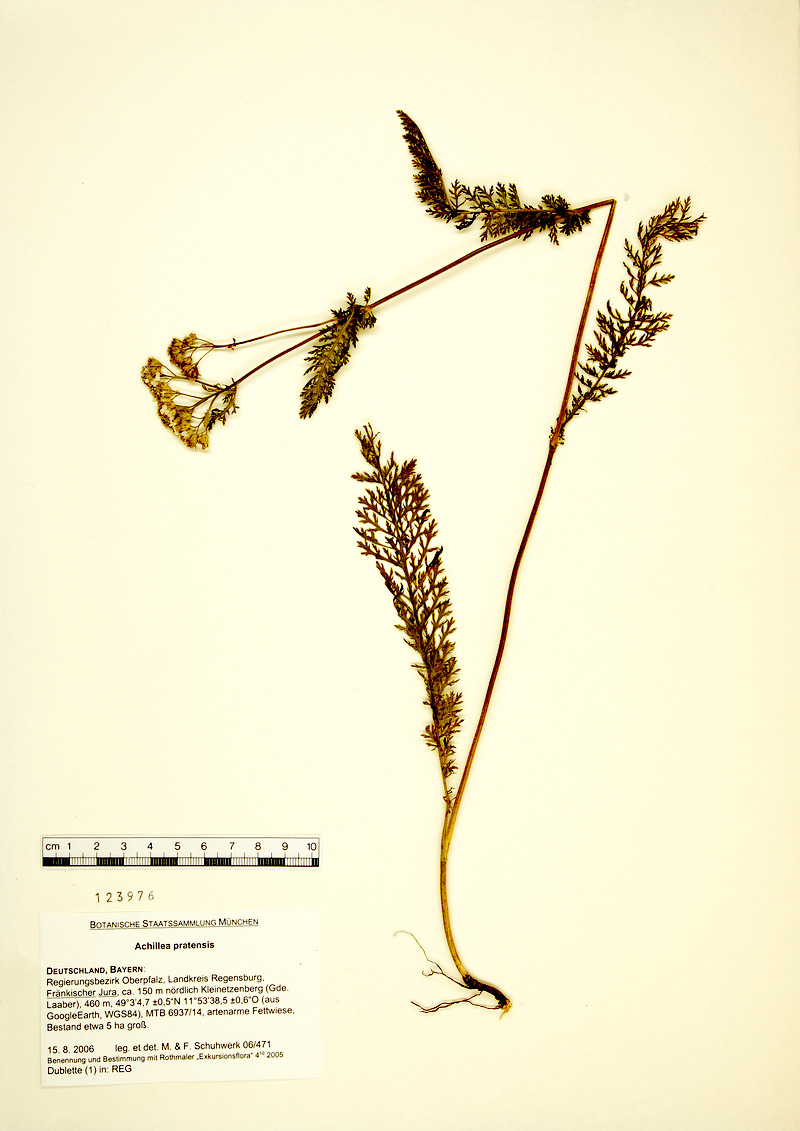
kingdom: Plantae
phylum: Tracheophyta
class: Magnoliopsida
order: Asterales
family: Asteraceae
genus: Achillea
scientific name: Achillea pratensis
